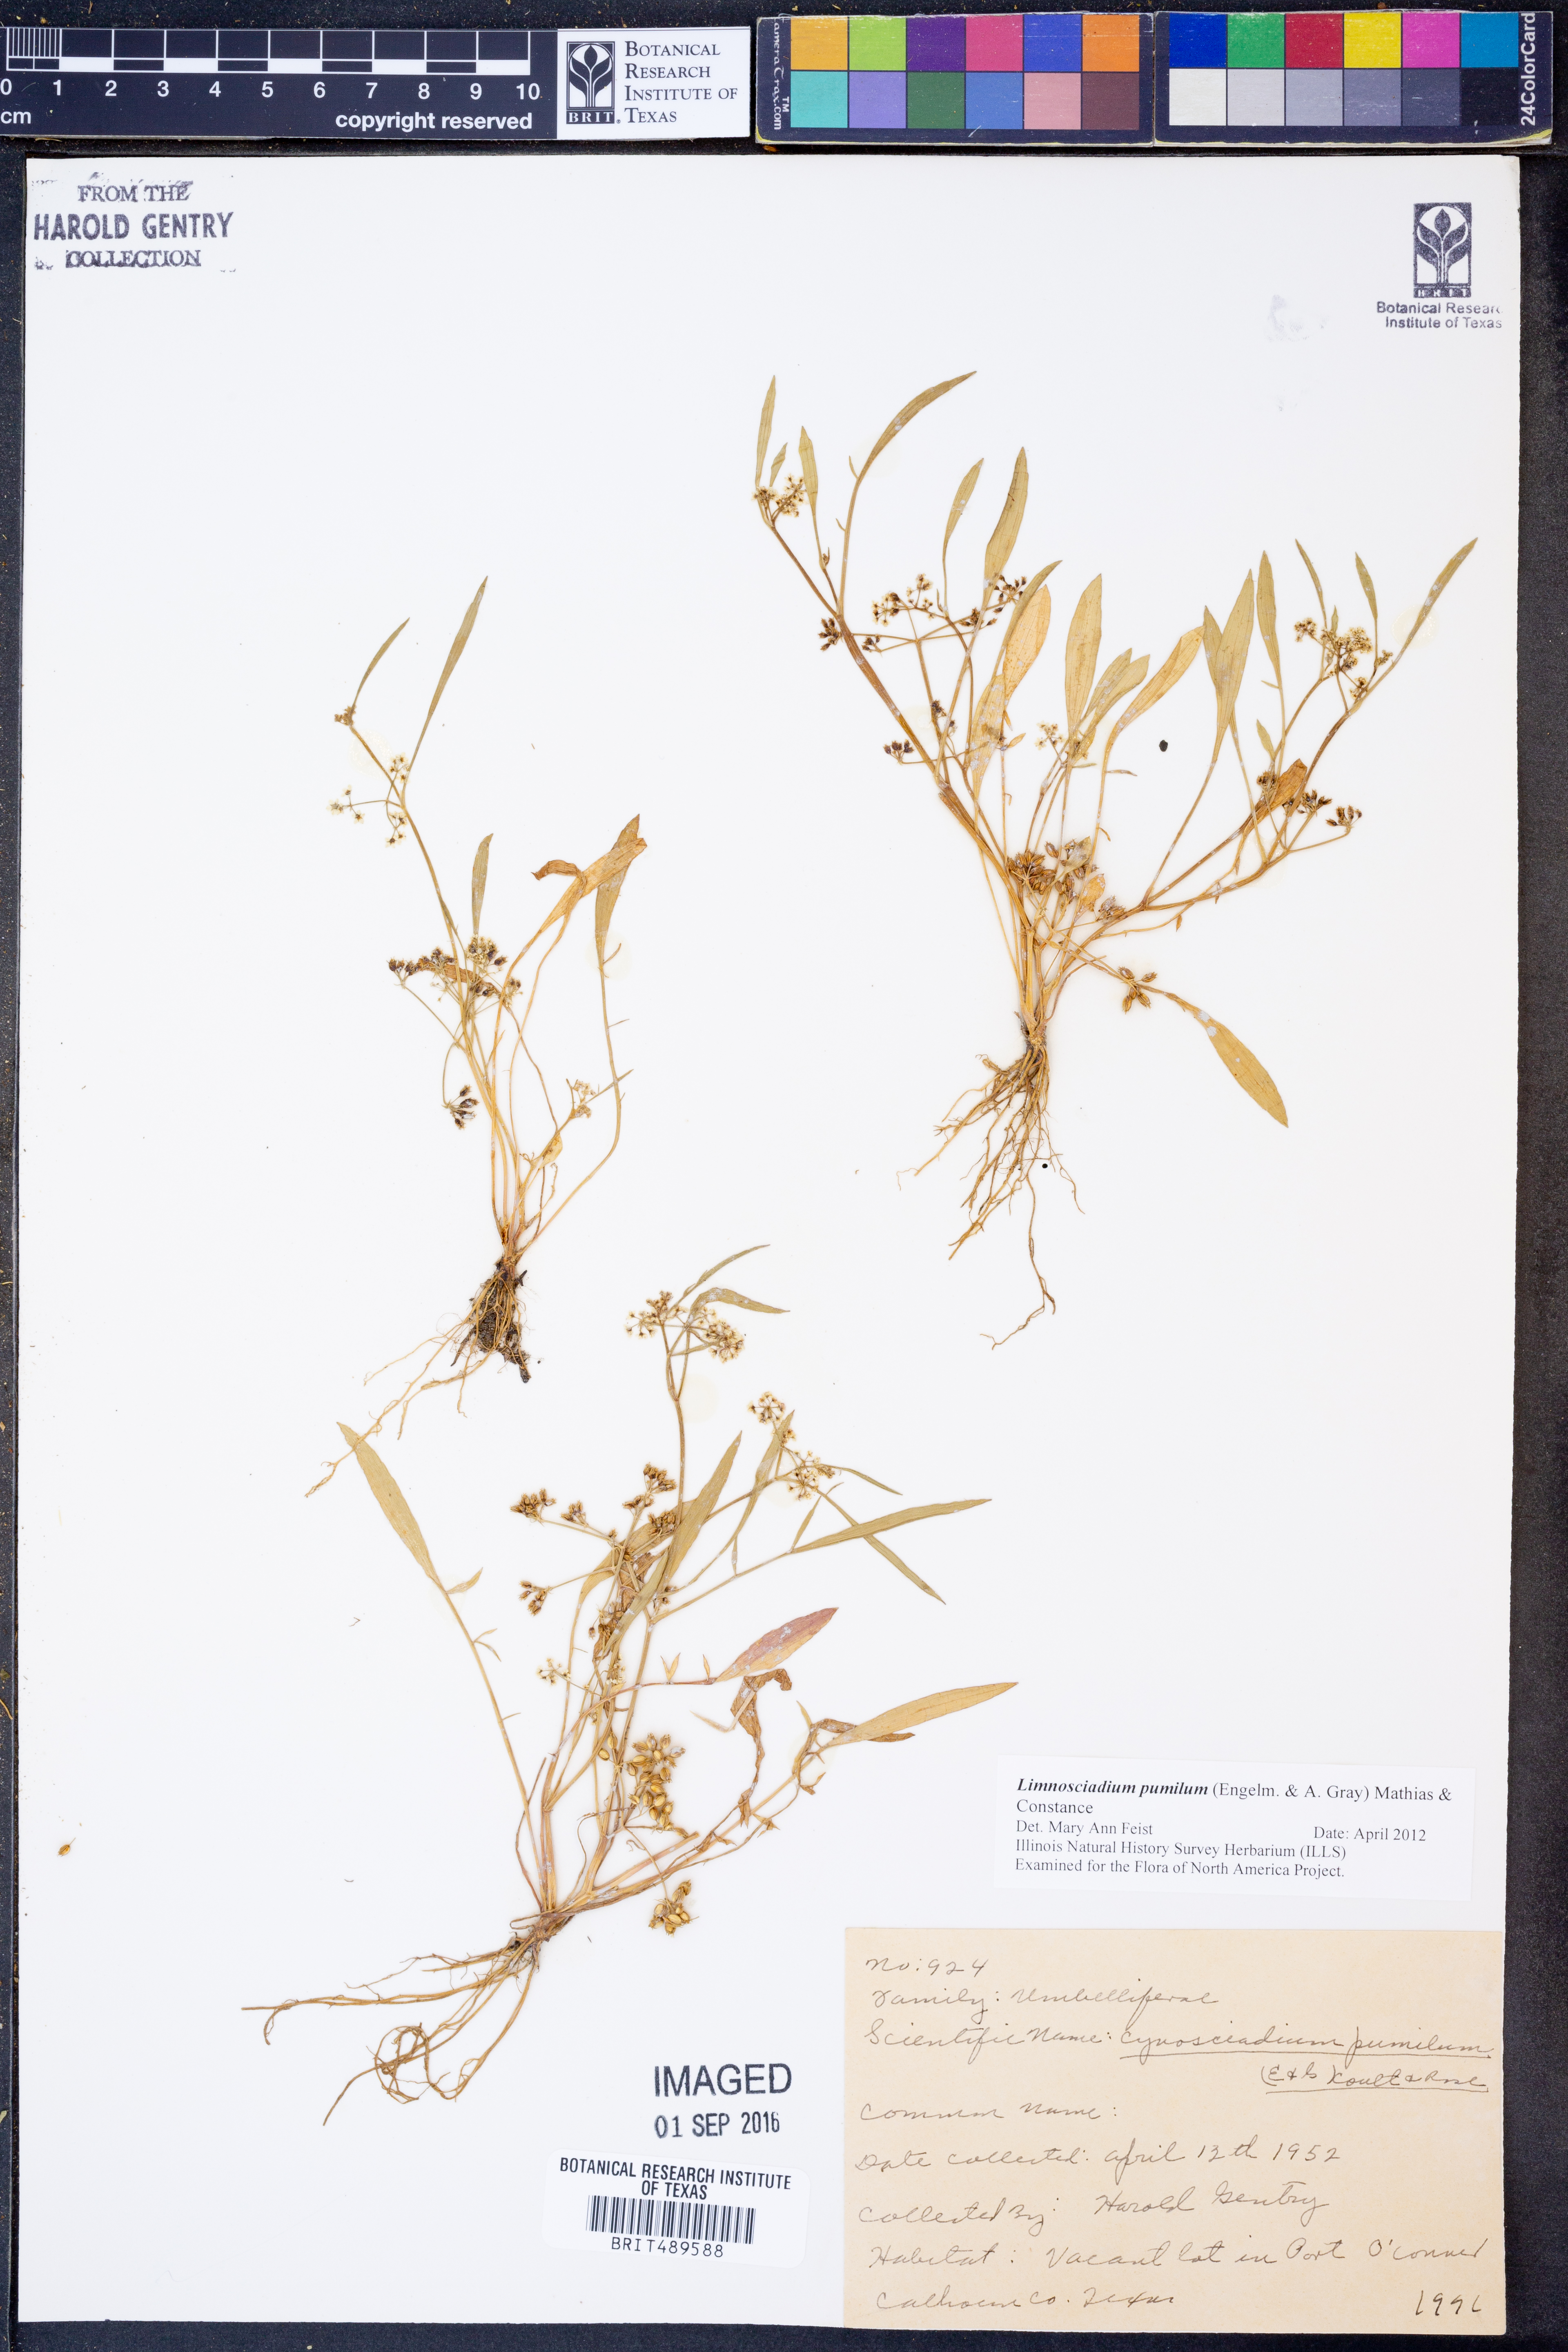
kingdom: Plantae
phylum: Tracheophyta
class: Magnoliopsida
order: Apiales
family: Apiaceae
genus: Limnosciadium
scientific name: Limnosciadium pinnatum
